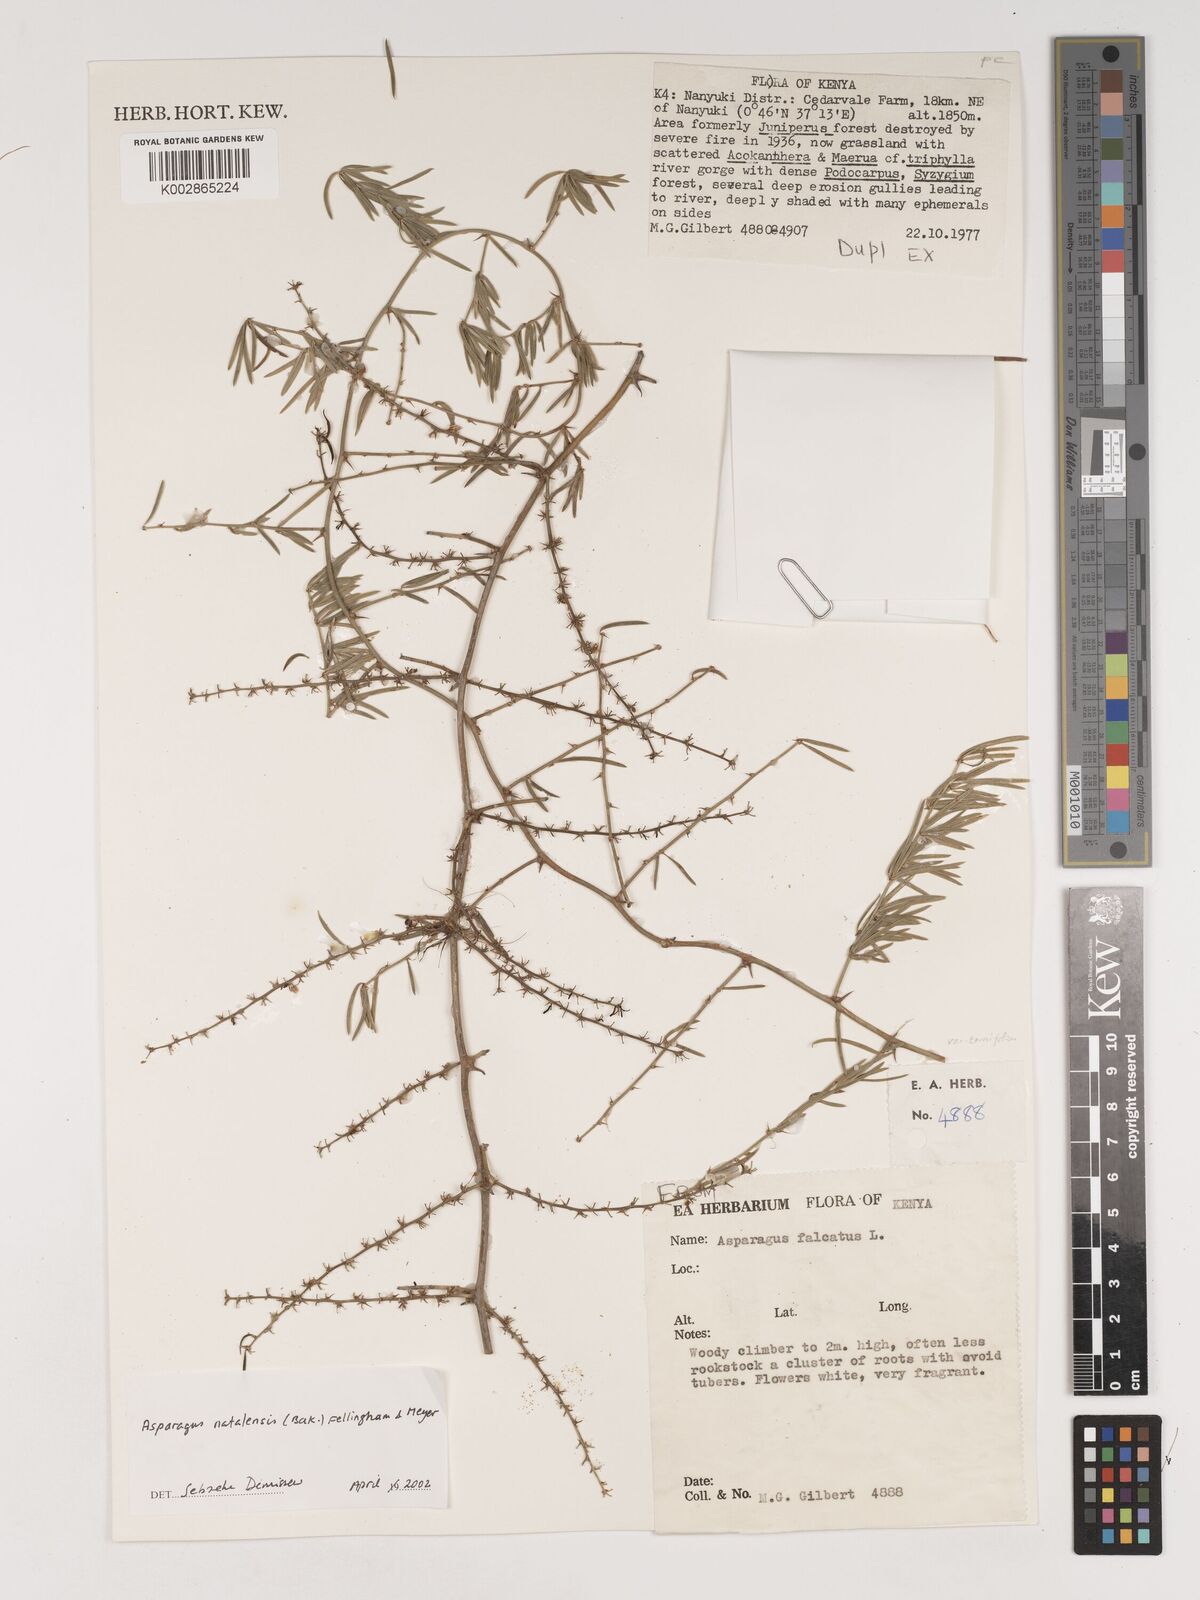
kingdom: Plantae
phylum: Tracheophyta
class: Liliopsida
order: Asparagales
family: Asparagaceae
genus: Asparagus
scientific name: Asparagus natalensis
